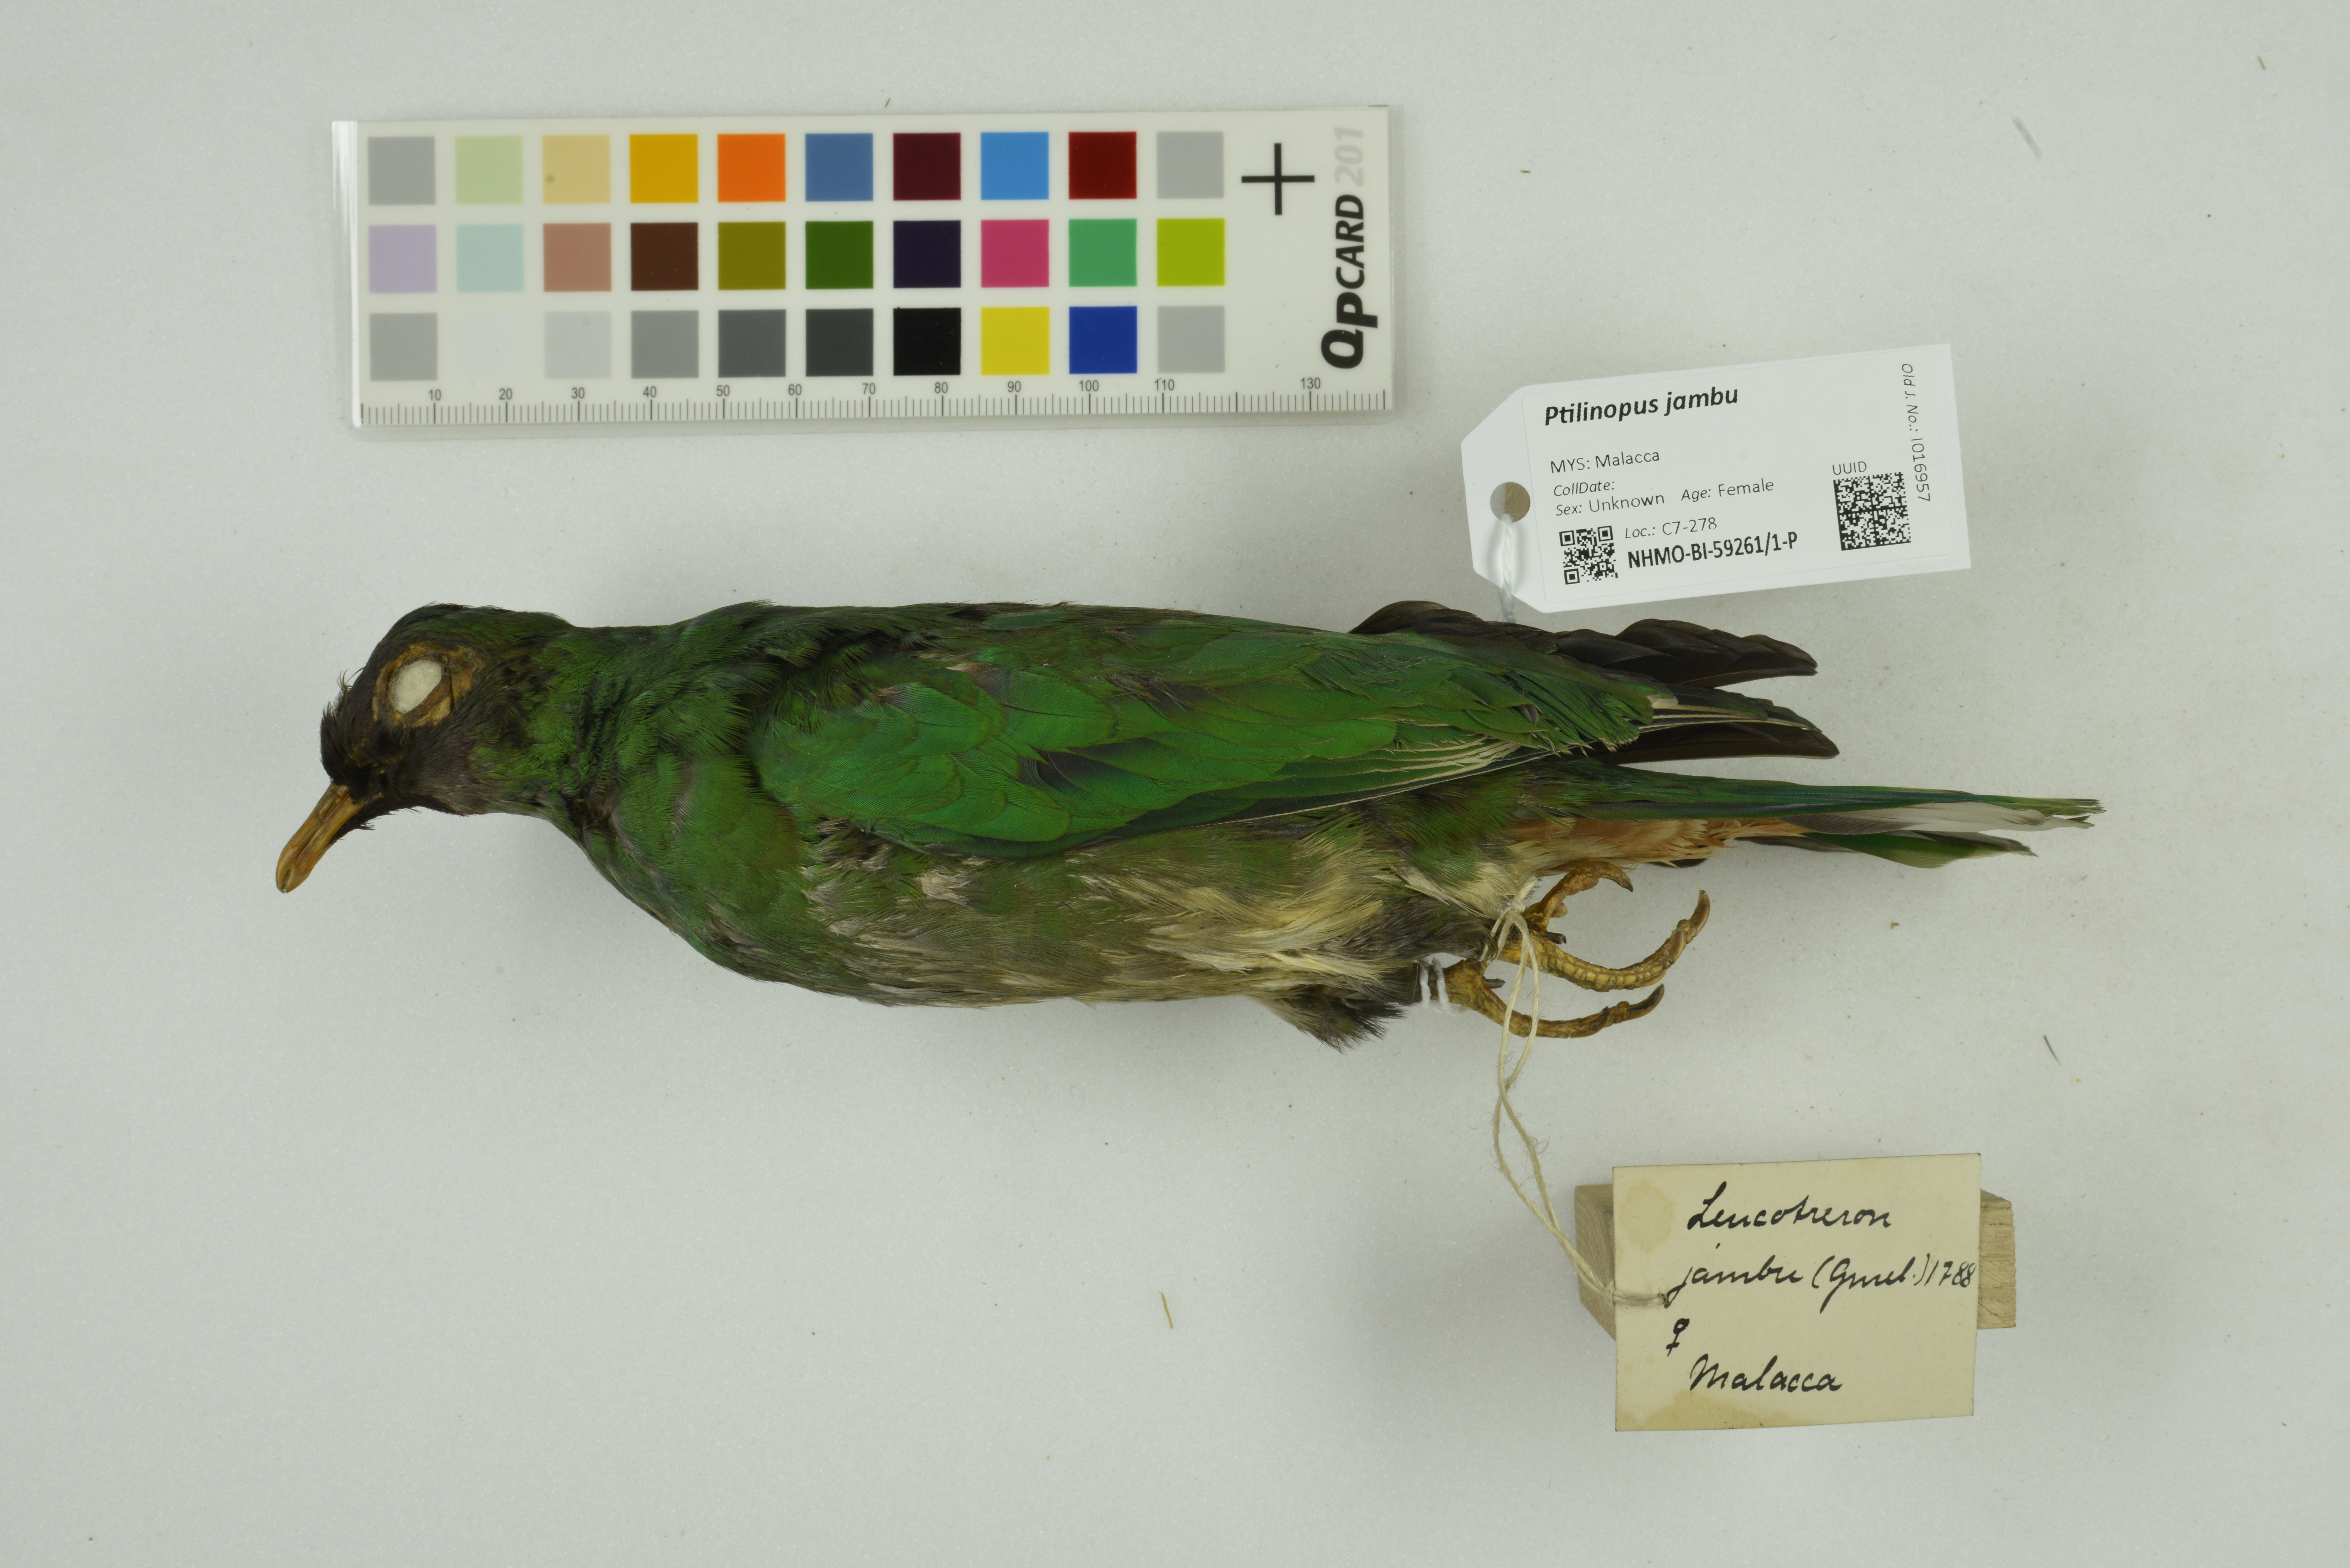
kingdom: Animalia
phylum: Chordata
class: Aves
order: Columbiformes
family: Columbidae
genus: Ptilinopus
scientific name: Ptilinopus jambu
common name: Jambu fruit dove
